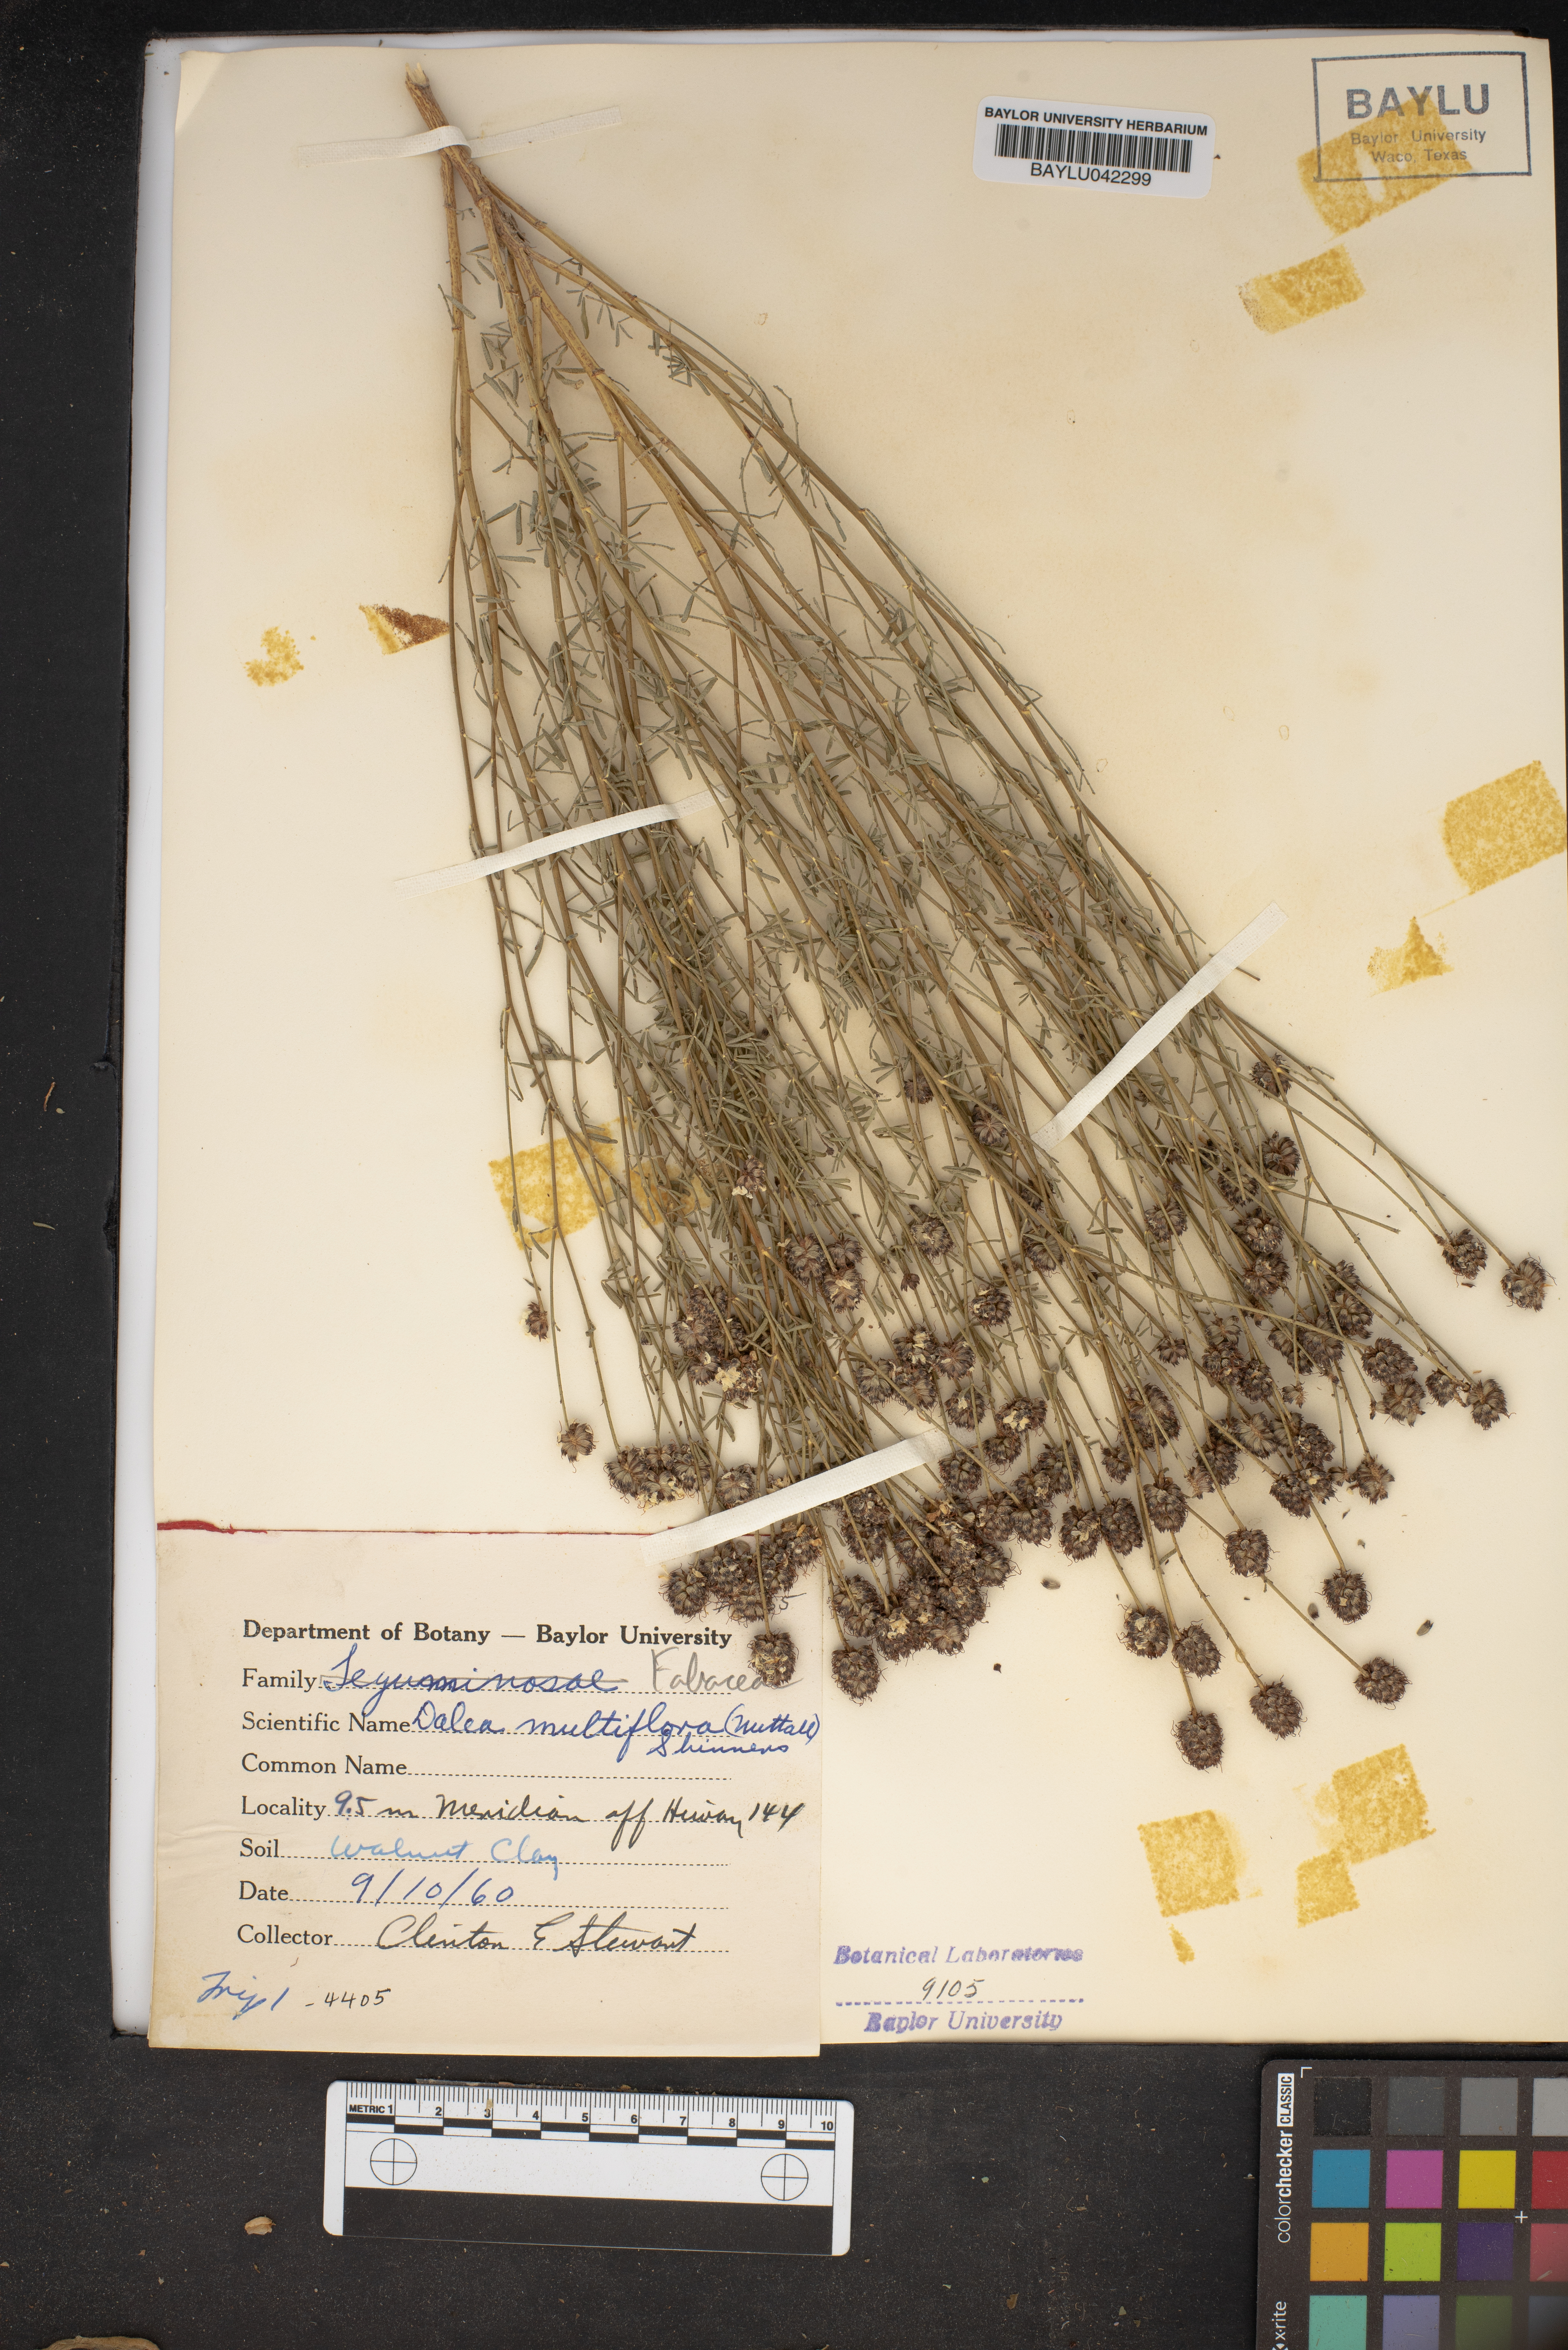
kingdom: Plantae
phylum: Tracheophyta
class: Magnoliopsida
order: Fabales
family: Fabaceae
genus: Dalea
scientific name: Dalea multiflora
